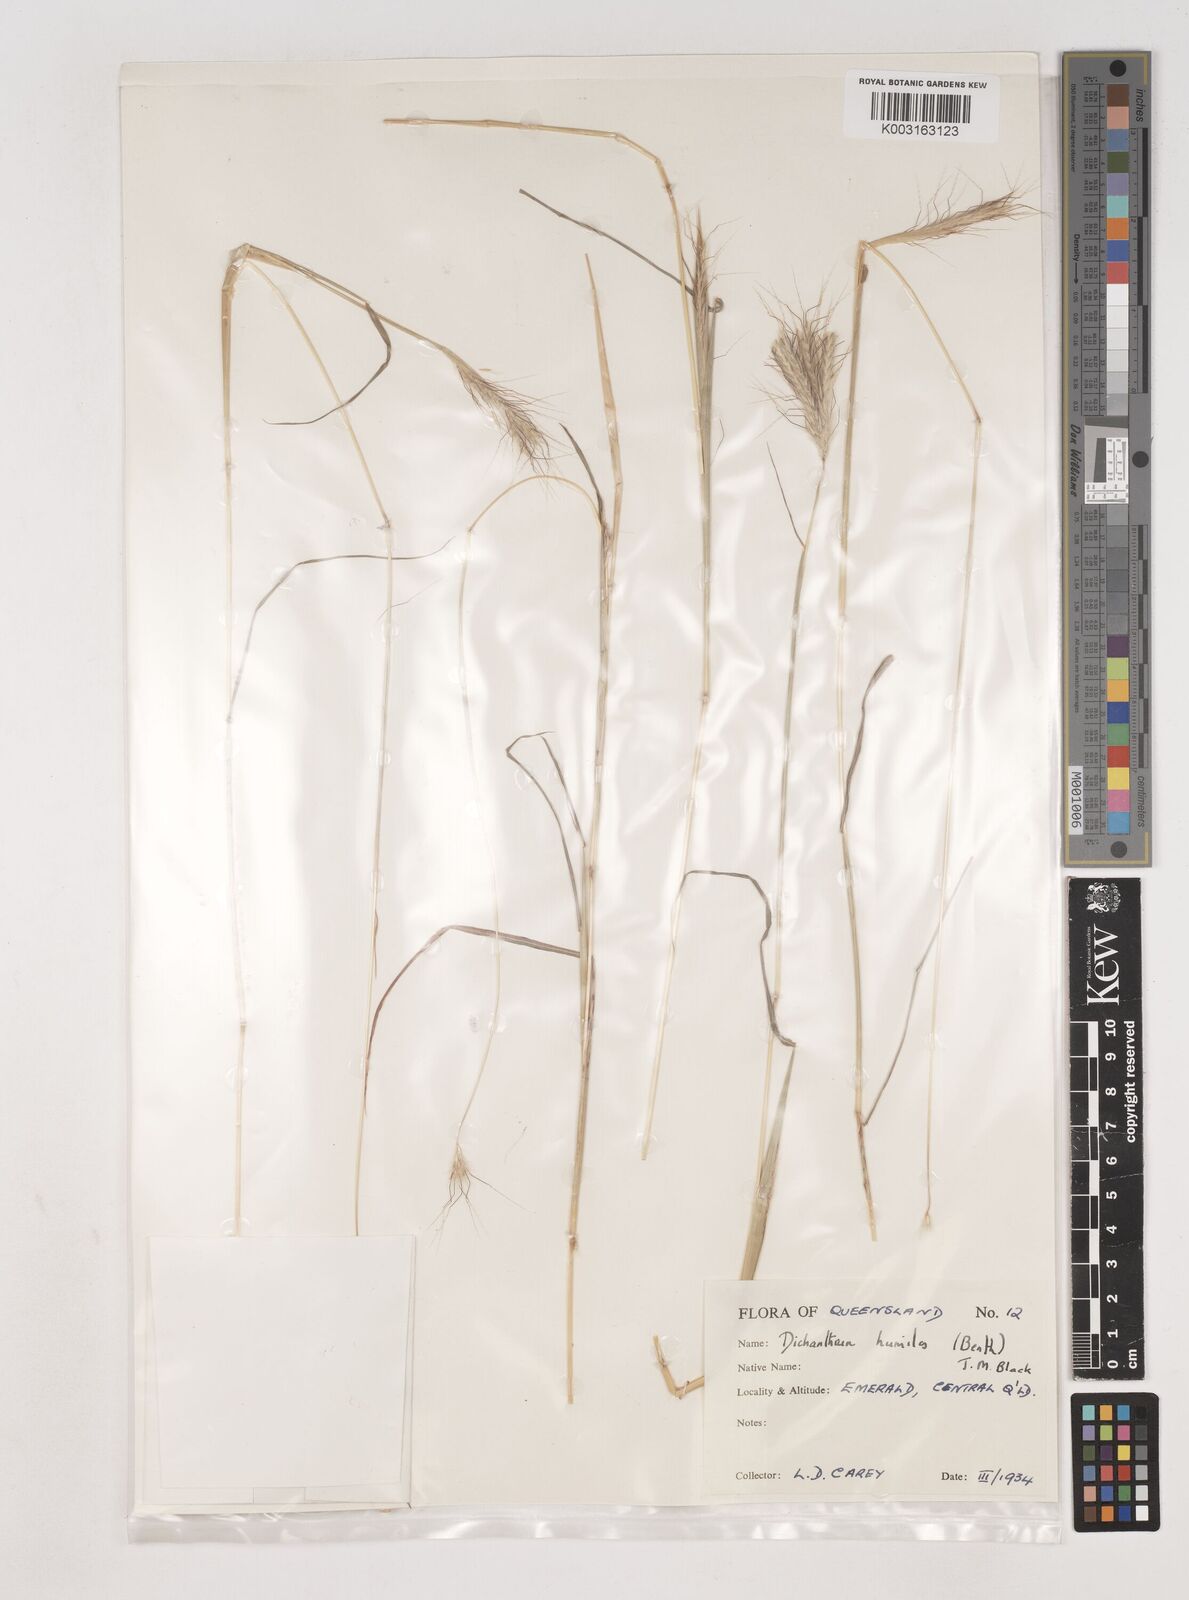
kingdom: Plantae
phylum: Tracheophyta
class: Liliopsida
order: Poales
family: Poaceae
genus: Dichanthium
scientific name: Dichanthium sericeum
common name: Silky bluestem
